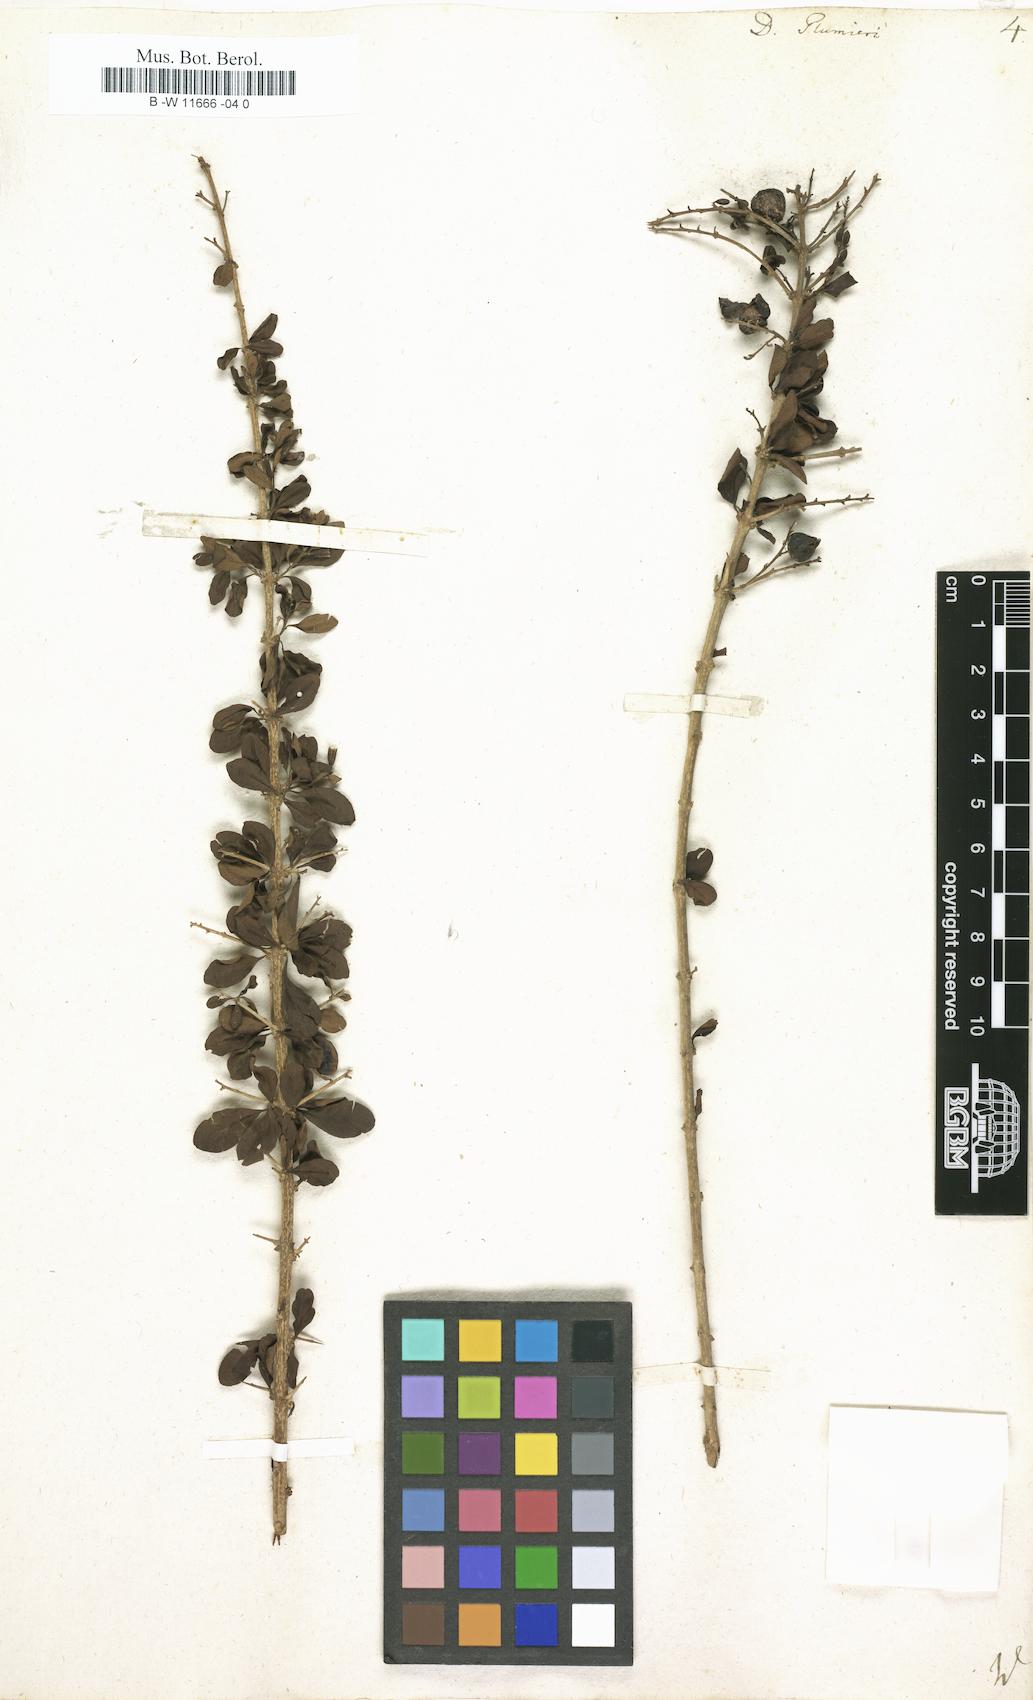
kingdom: Plantae
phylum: Tracheophyta
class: Magnoliopsida
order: Lamiales
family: Verbenaceae
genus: Duranta
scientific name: Duranta erecta
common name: Golden dewdrops
